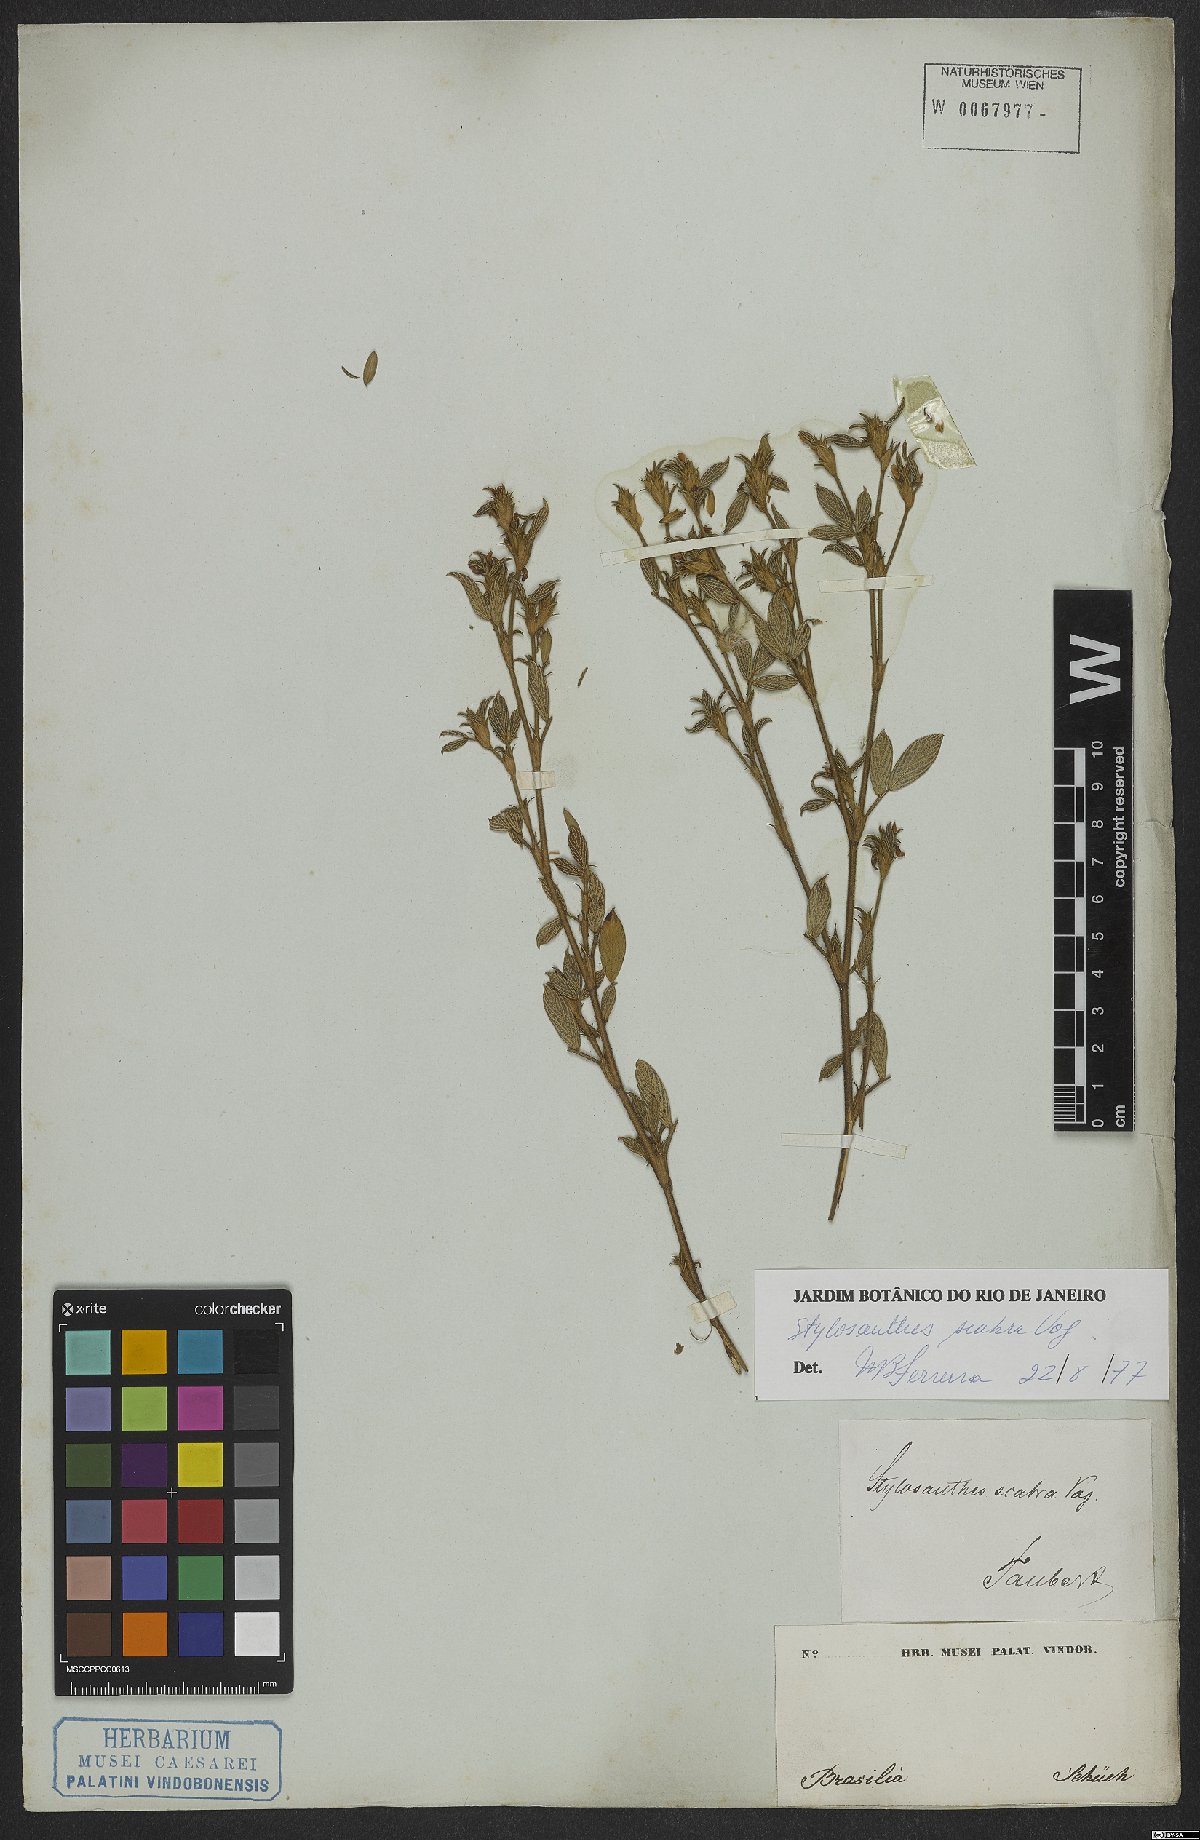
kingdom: Plantae
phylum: Tracheophyta
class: Magnoliopsida
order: Fabales
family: Fabaceae
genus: Stylosanthes
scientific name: Stylosanthes scabra
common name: Pencilflower
